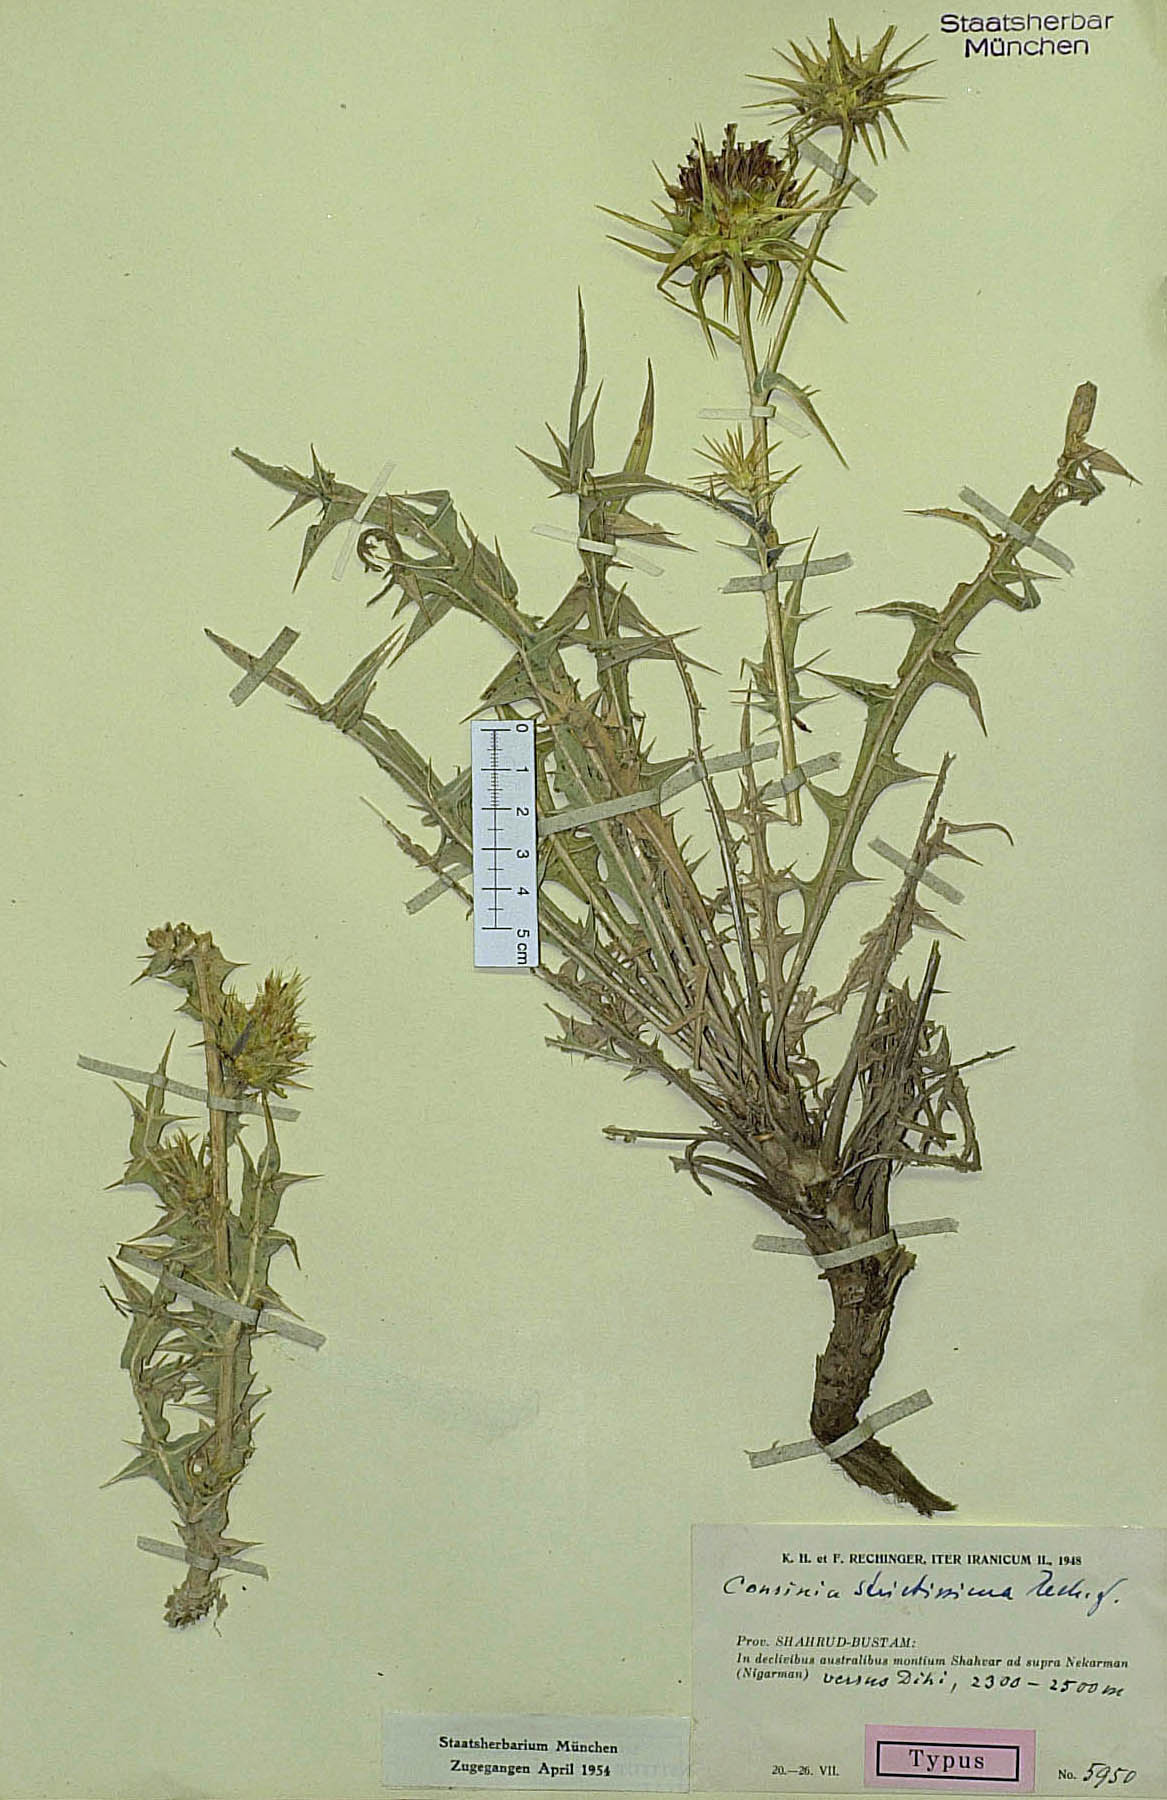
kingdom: Plantae
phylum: Tracheophyta
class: Magnoliopsida
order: Asterales
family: Asteraceae
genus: Cousinia
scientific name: Cousinia meshhedensis
